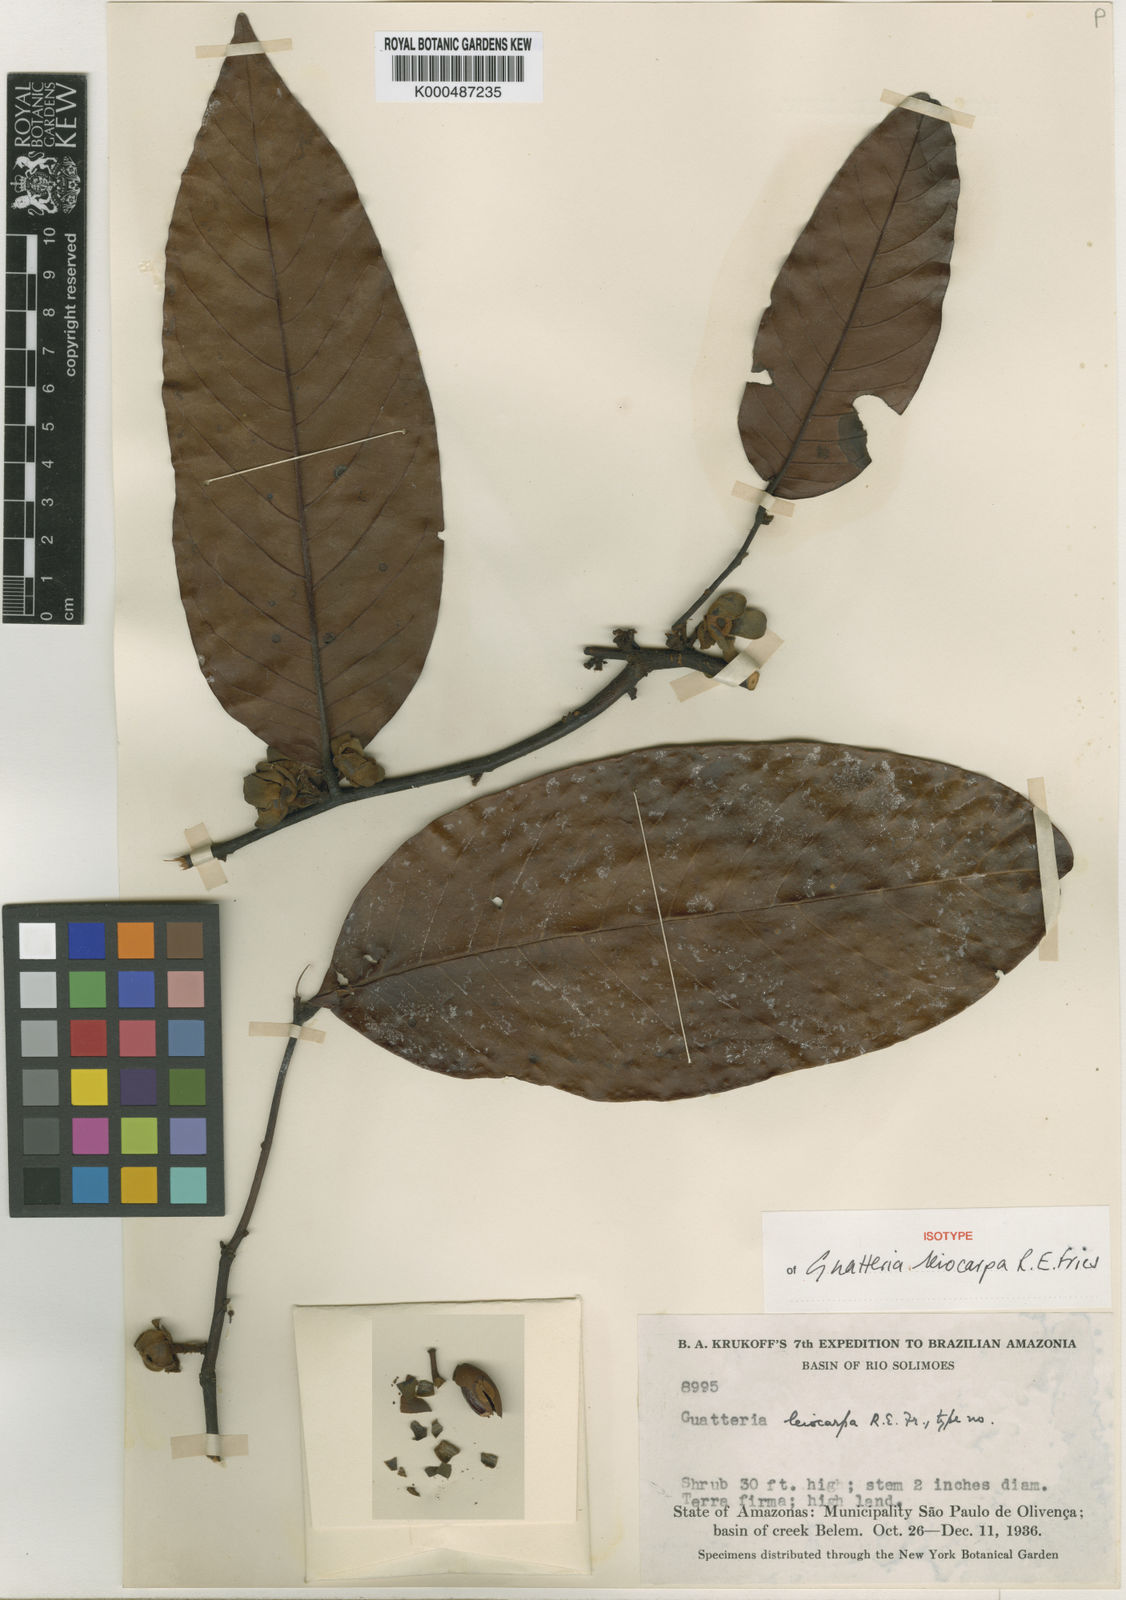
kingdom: Plantae
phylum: Tracheophyta
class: Magnoliopsida
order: Magnoliales
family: Annonaceae
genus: Guatteria
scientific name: Guatteria punctata
